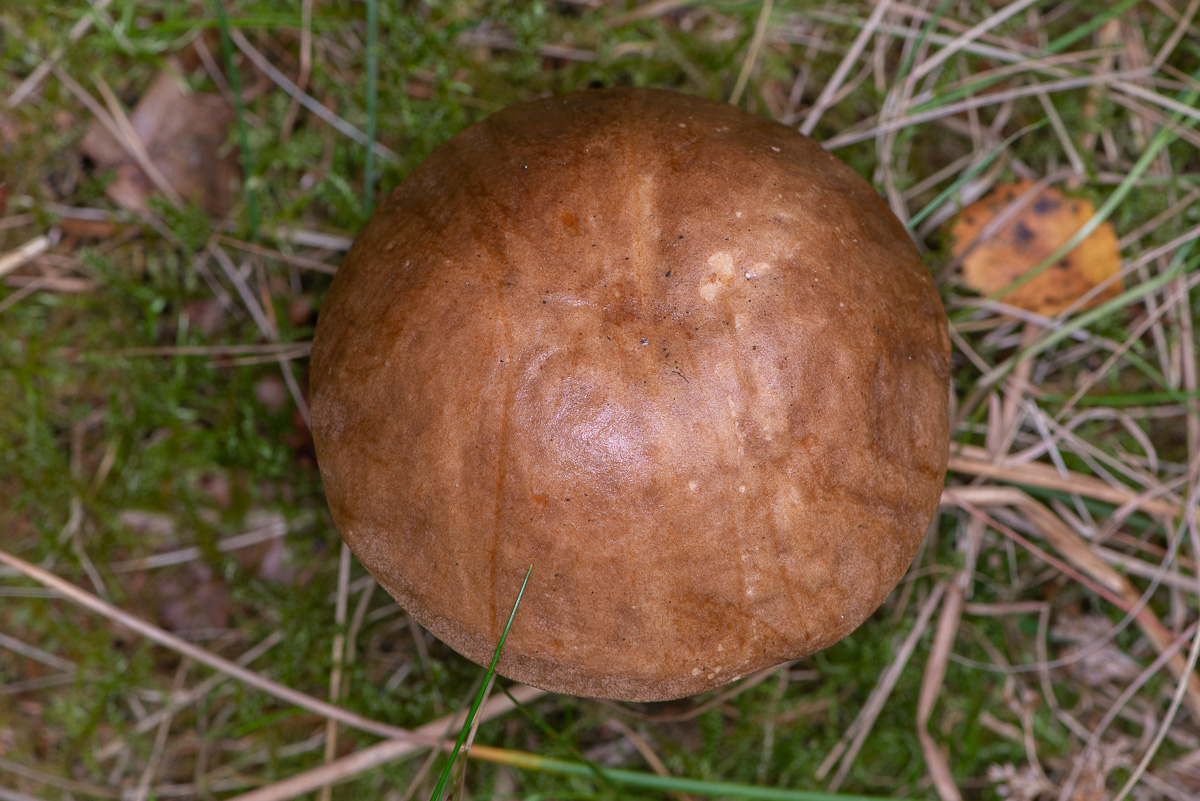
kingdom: Fungi
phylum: Basidiomycota
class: Agaricomycetes
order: Boletales
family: Boletaceae
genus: Leccinum
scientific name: Leccinum scabrum
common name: brun skælrørhat
